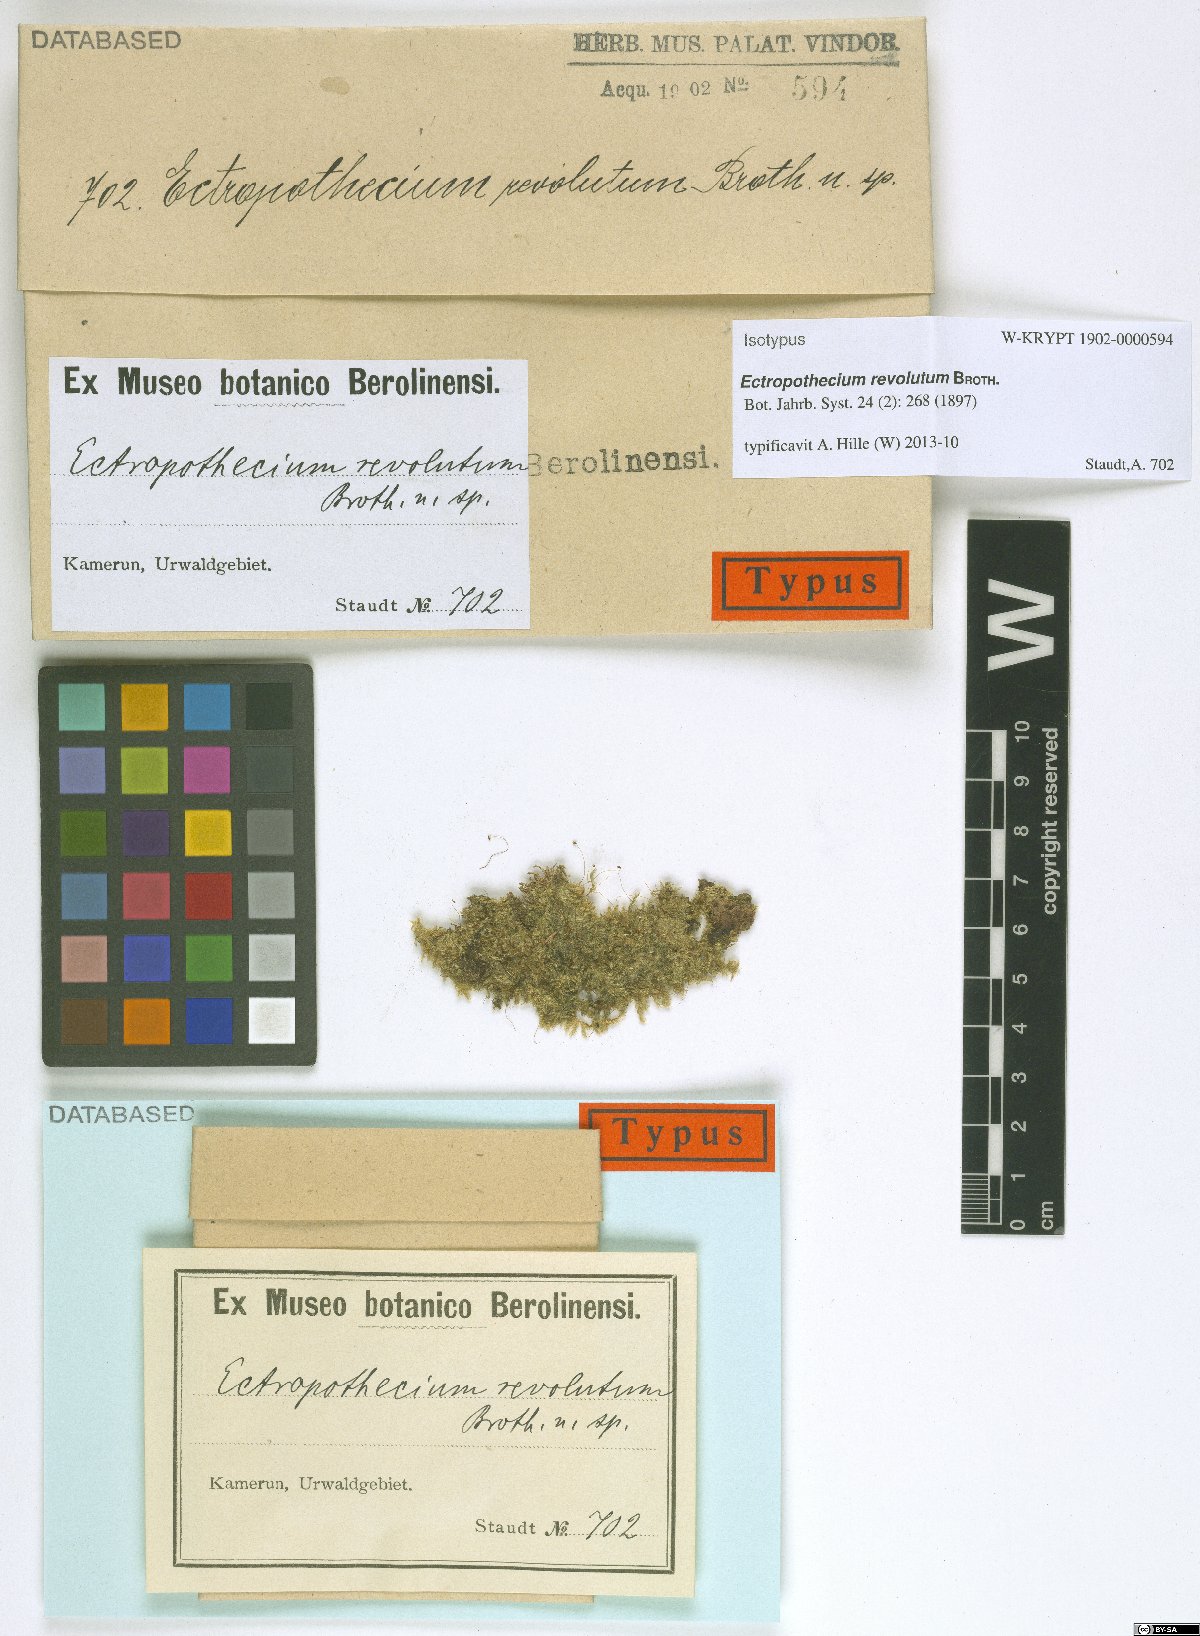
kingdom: Plantae
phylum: Bryophyta
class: Bryopsida
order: Hypnales
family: Hypnaceae
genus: Ectropothecium
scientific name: Ectropothecium revolutum
